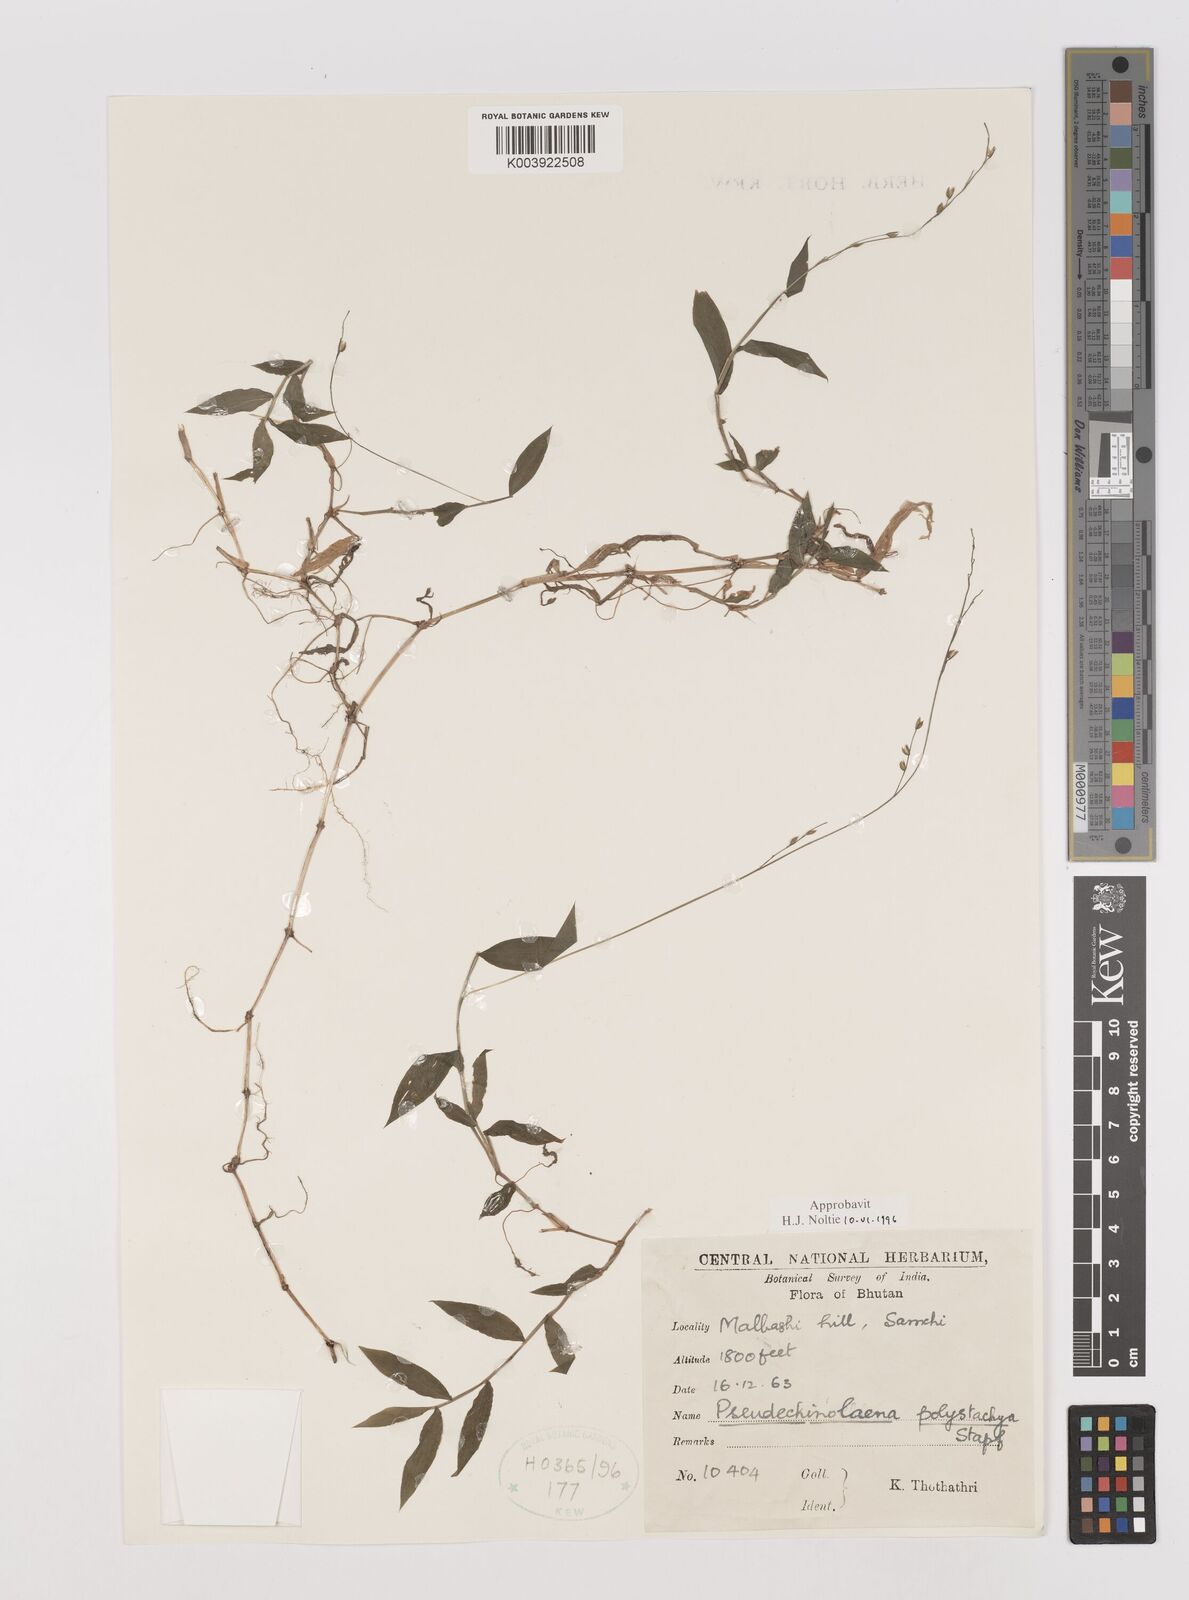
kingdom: Plantae
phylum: Tracheophyta
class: Liliopsida
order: Poales
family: Poaceae
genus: Pseudechinolaena
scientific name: Pseudechinolaena polystachya
